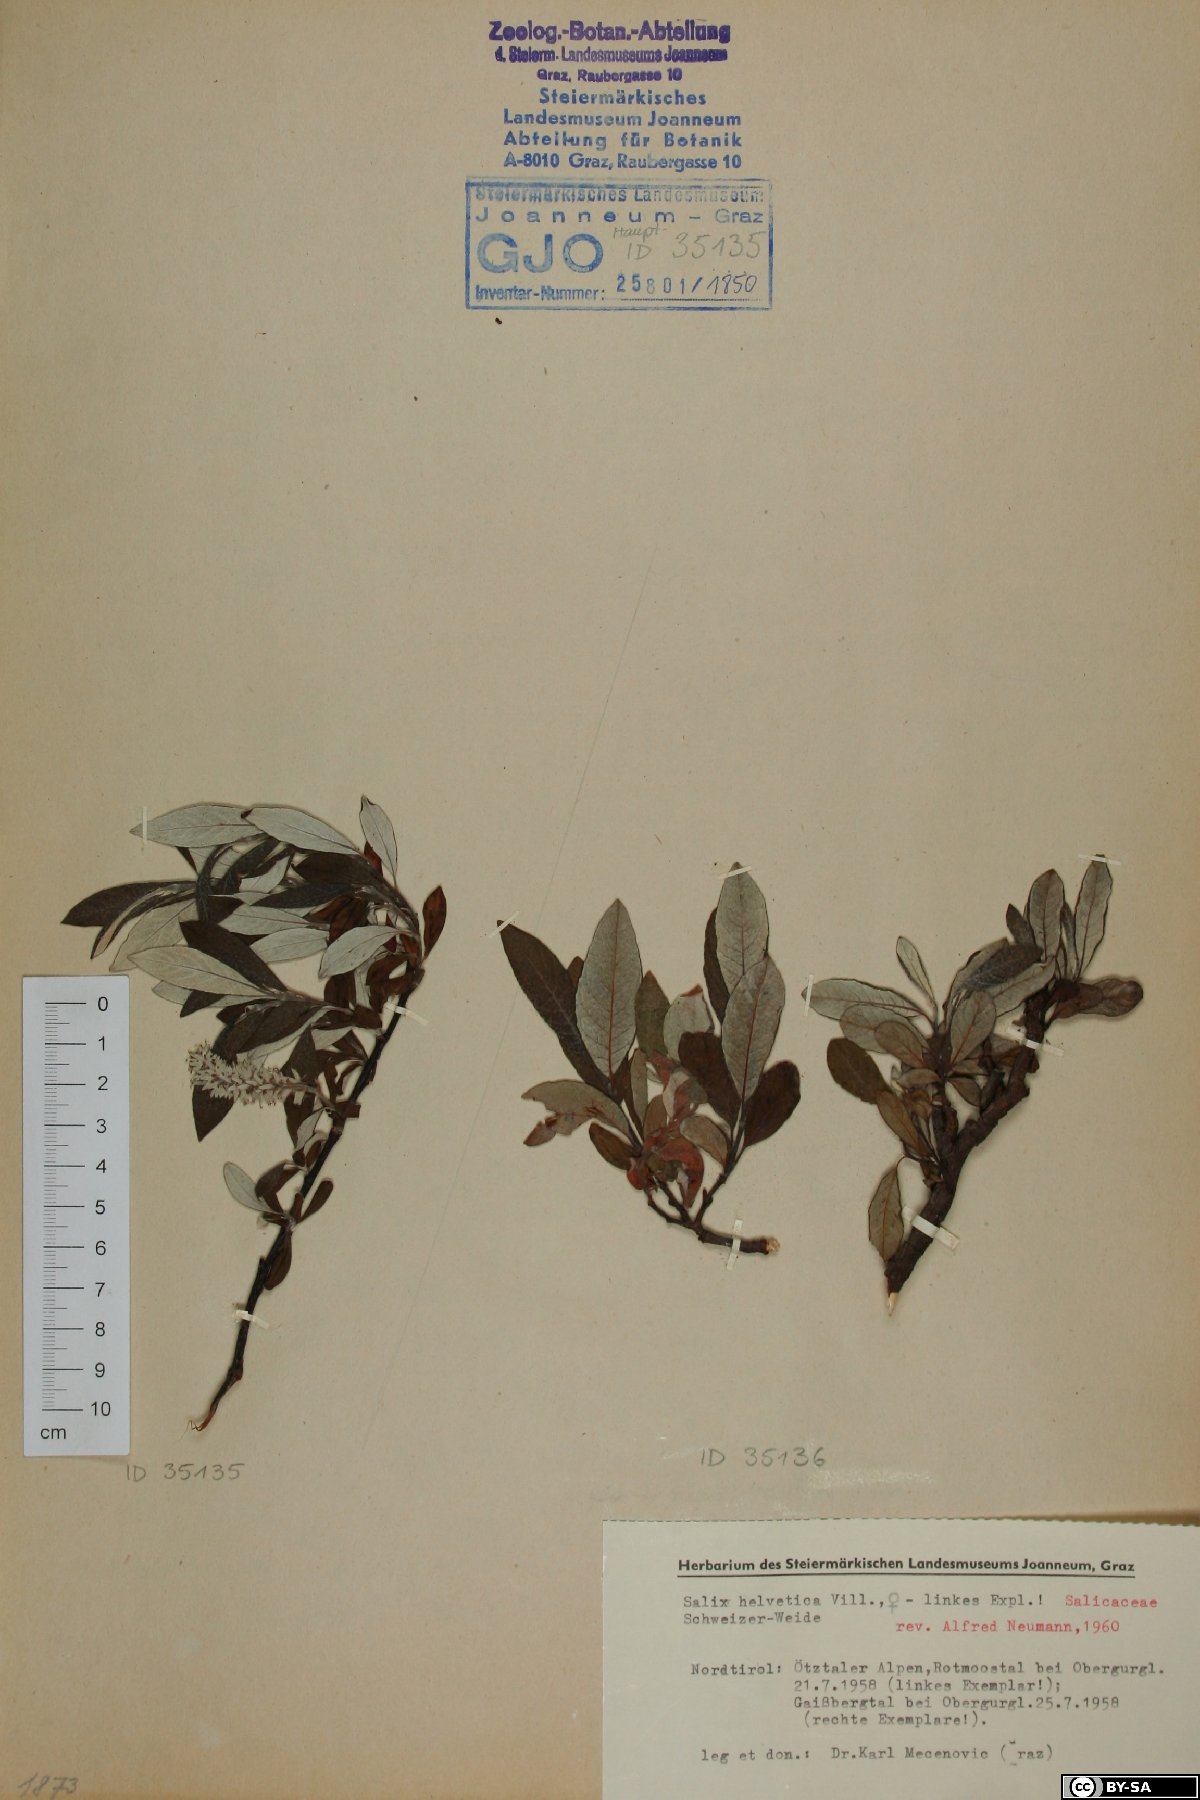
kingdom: Plantae
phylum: Tracheophyta
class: Magnoliopsida
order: Malpighiales
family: Salicaceae
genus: Salix
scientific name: Salix helvetica
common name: Swiss willow
